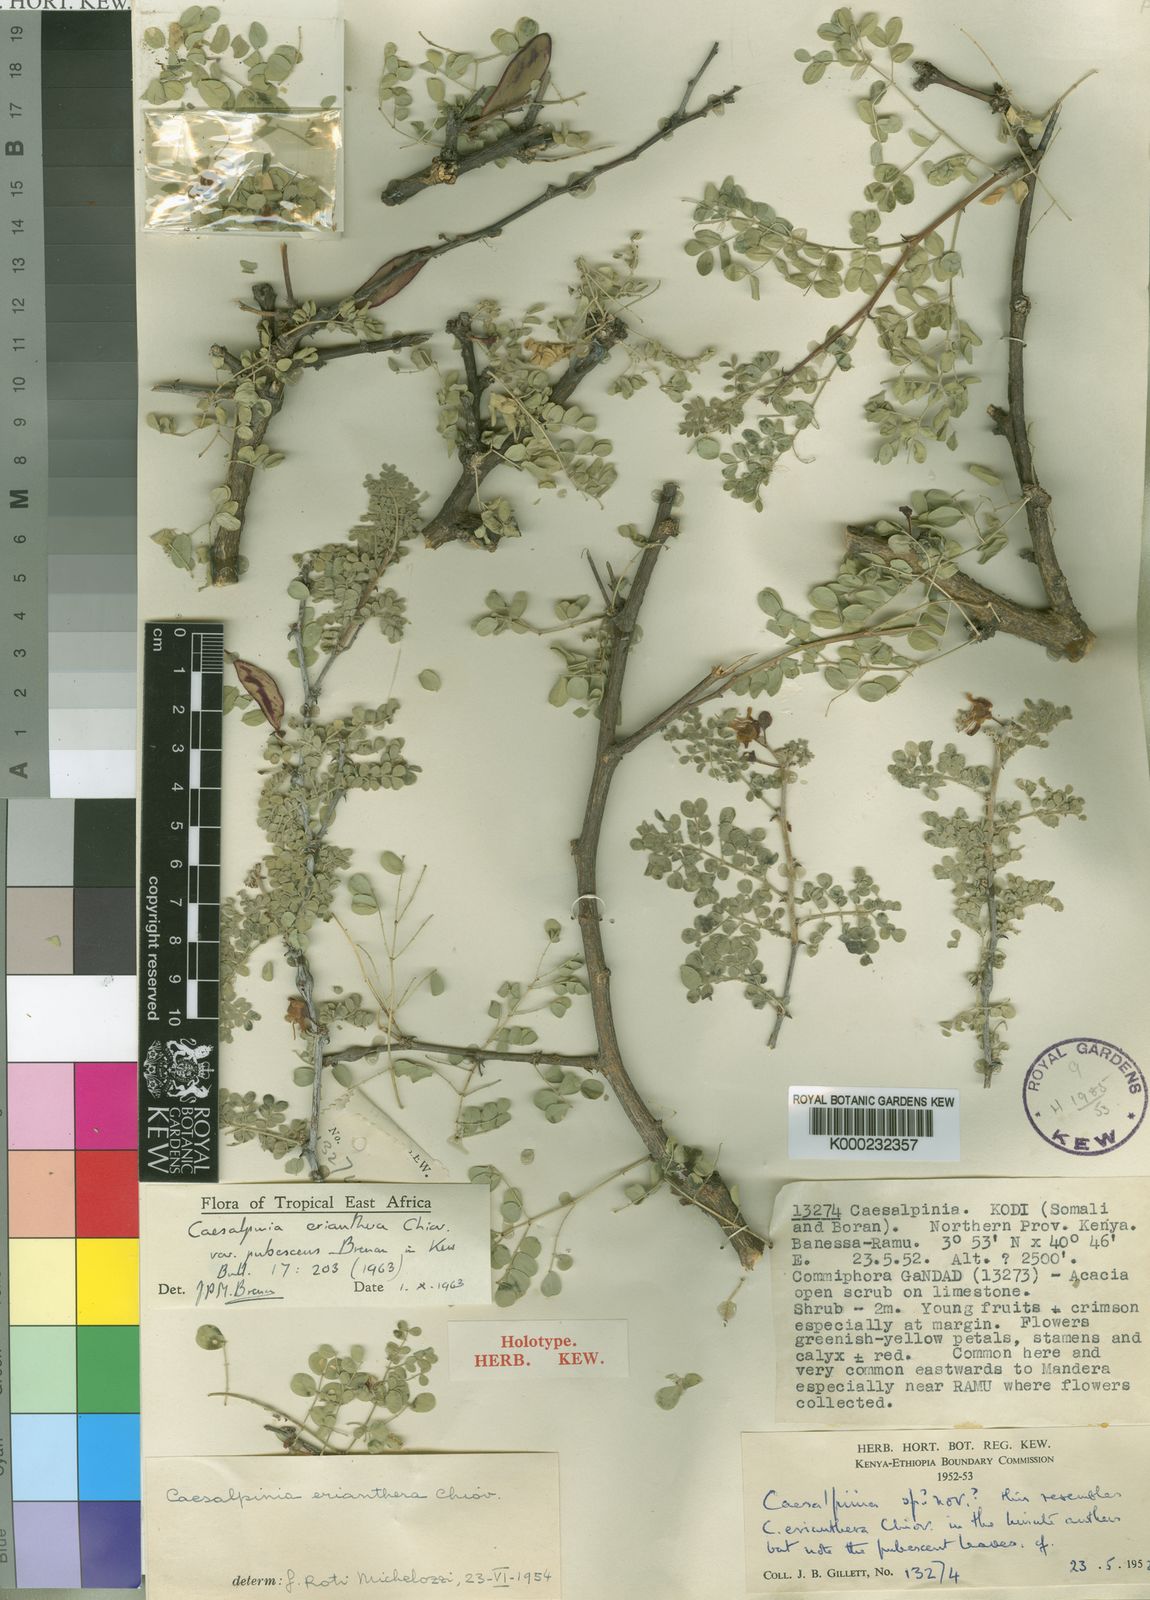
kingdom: Plantae
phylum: Tracheophyta
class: Magnoliopsida
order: Fabales
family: Fabaceae
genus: Denisophytum
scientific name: Denisophytum eriantherum
